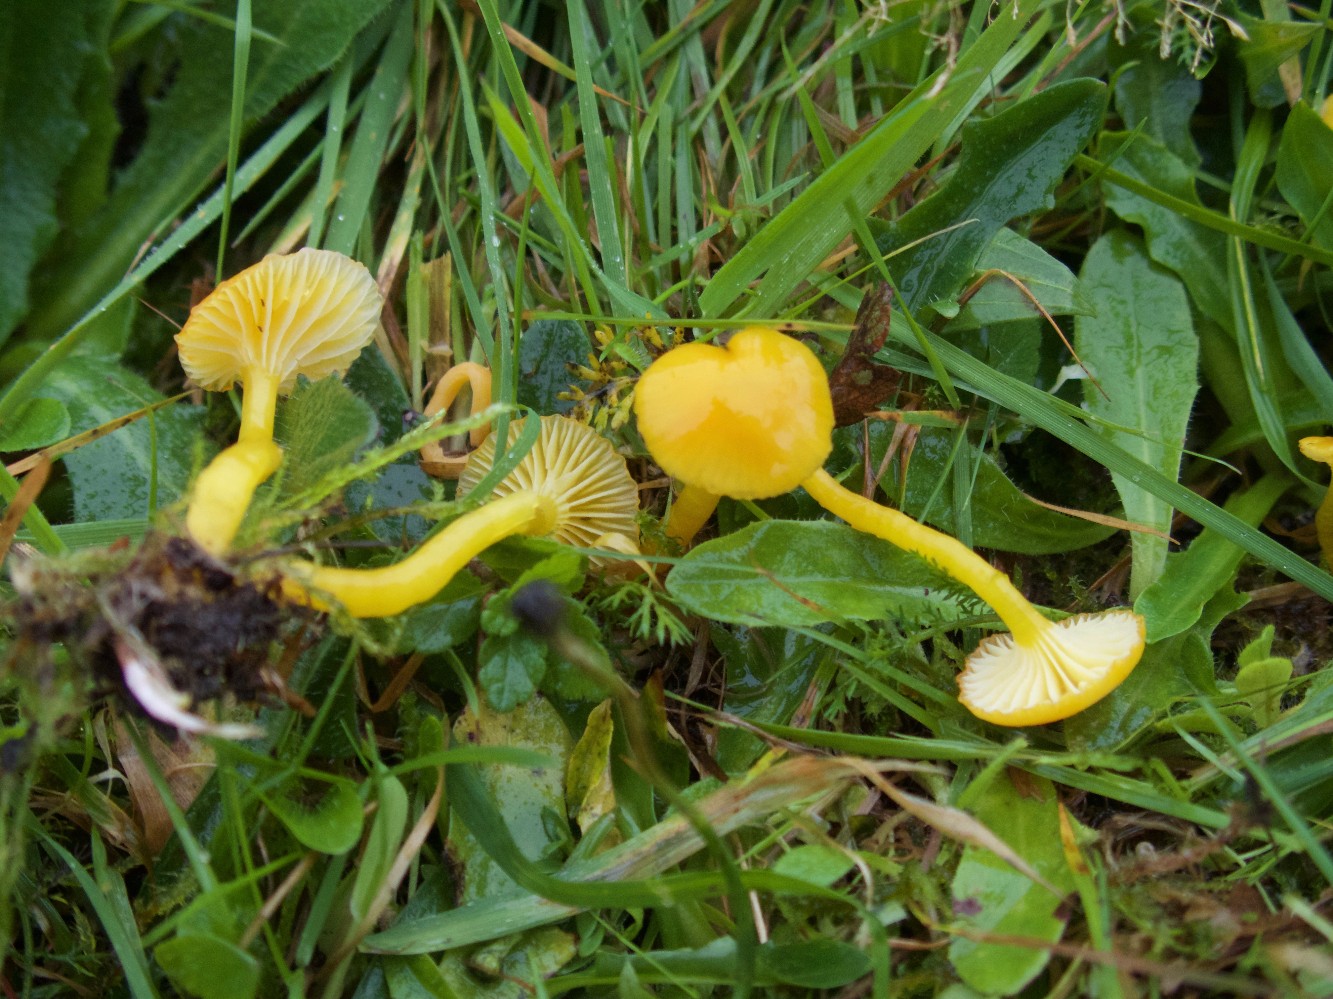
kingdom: Fungi
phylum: Basidiomycota
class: Agaricomycetes
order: Agaricales
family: Hygrophoraceae
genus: Hygrocybe
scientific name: Hygrocybe ceracea
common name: voksgul vokshat
